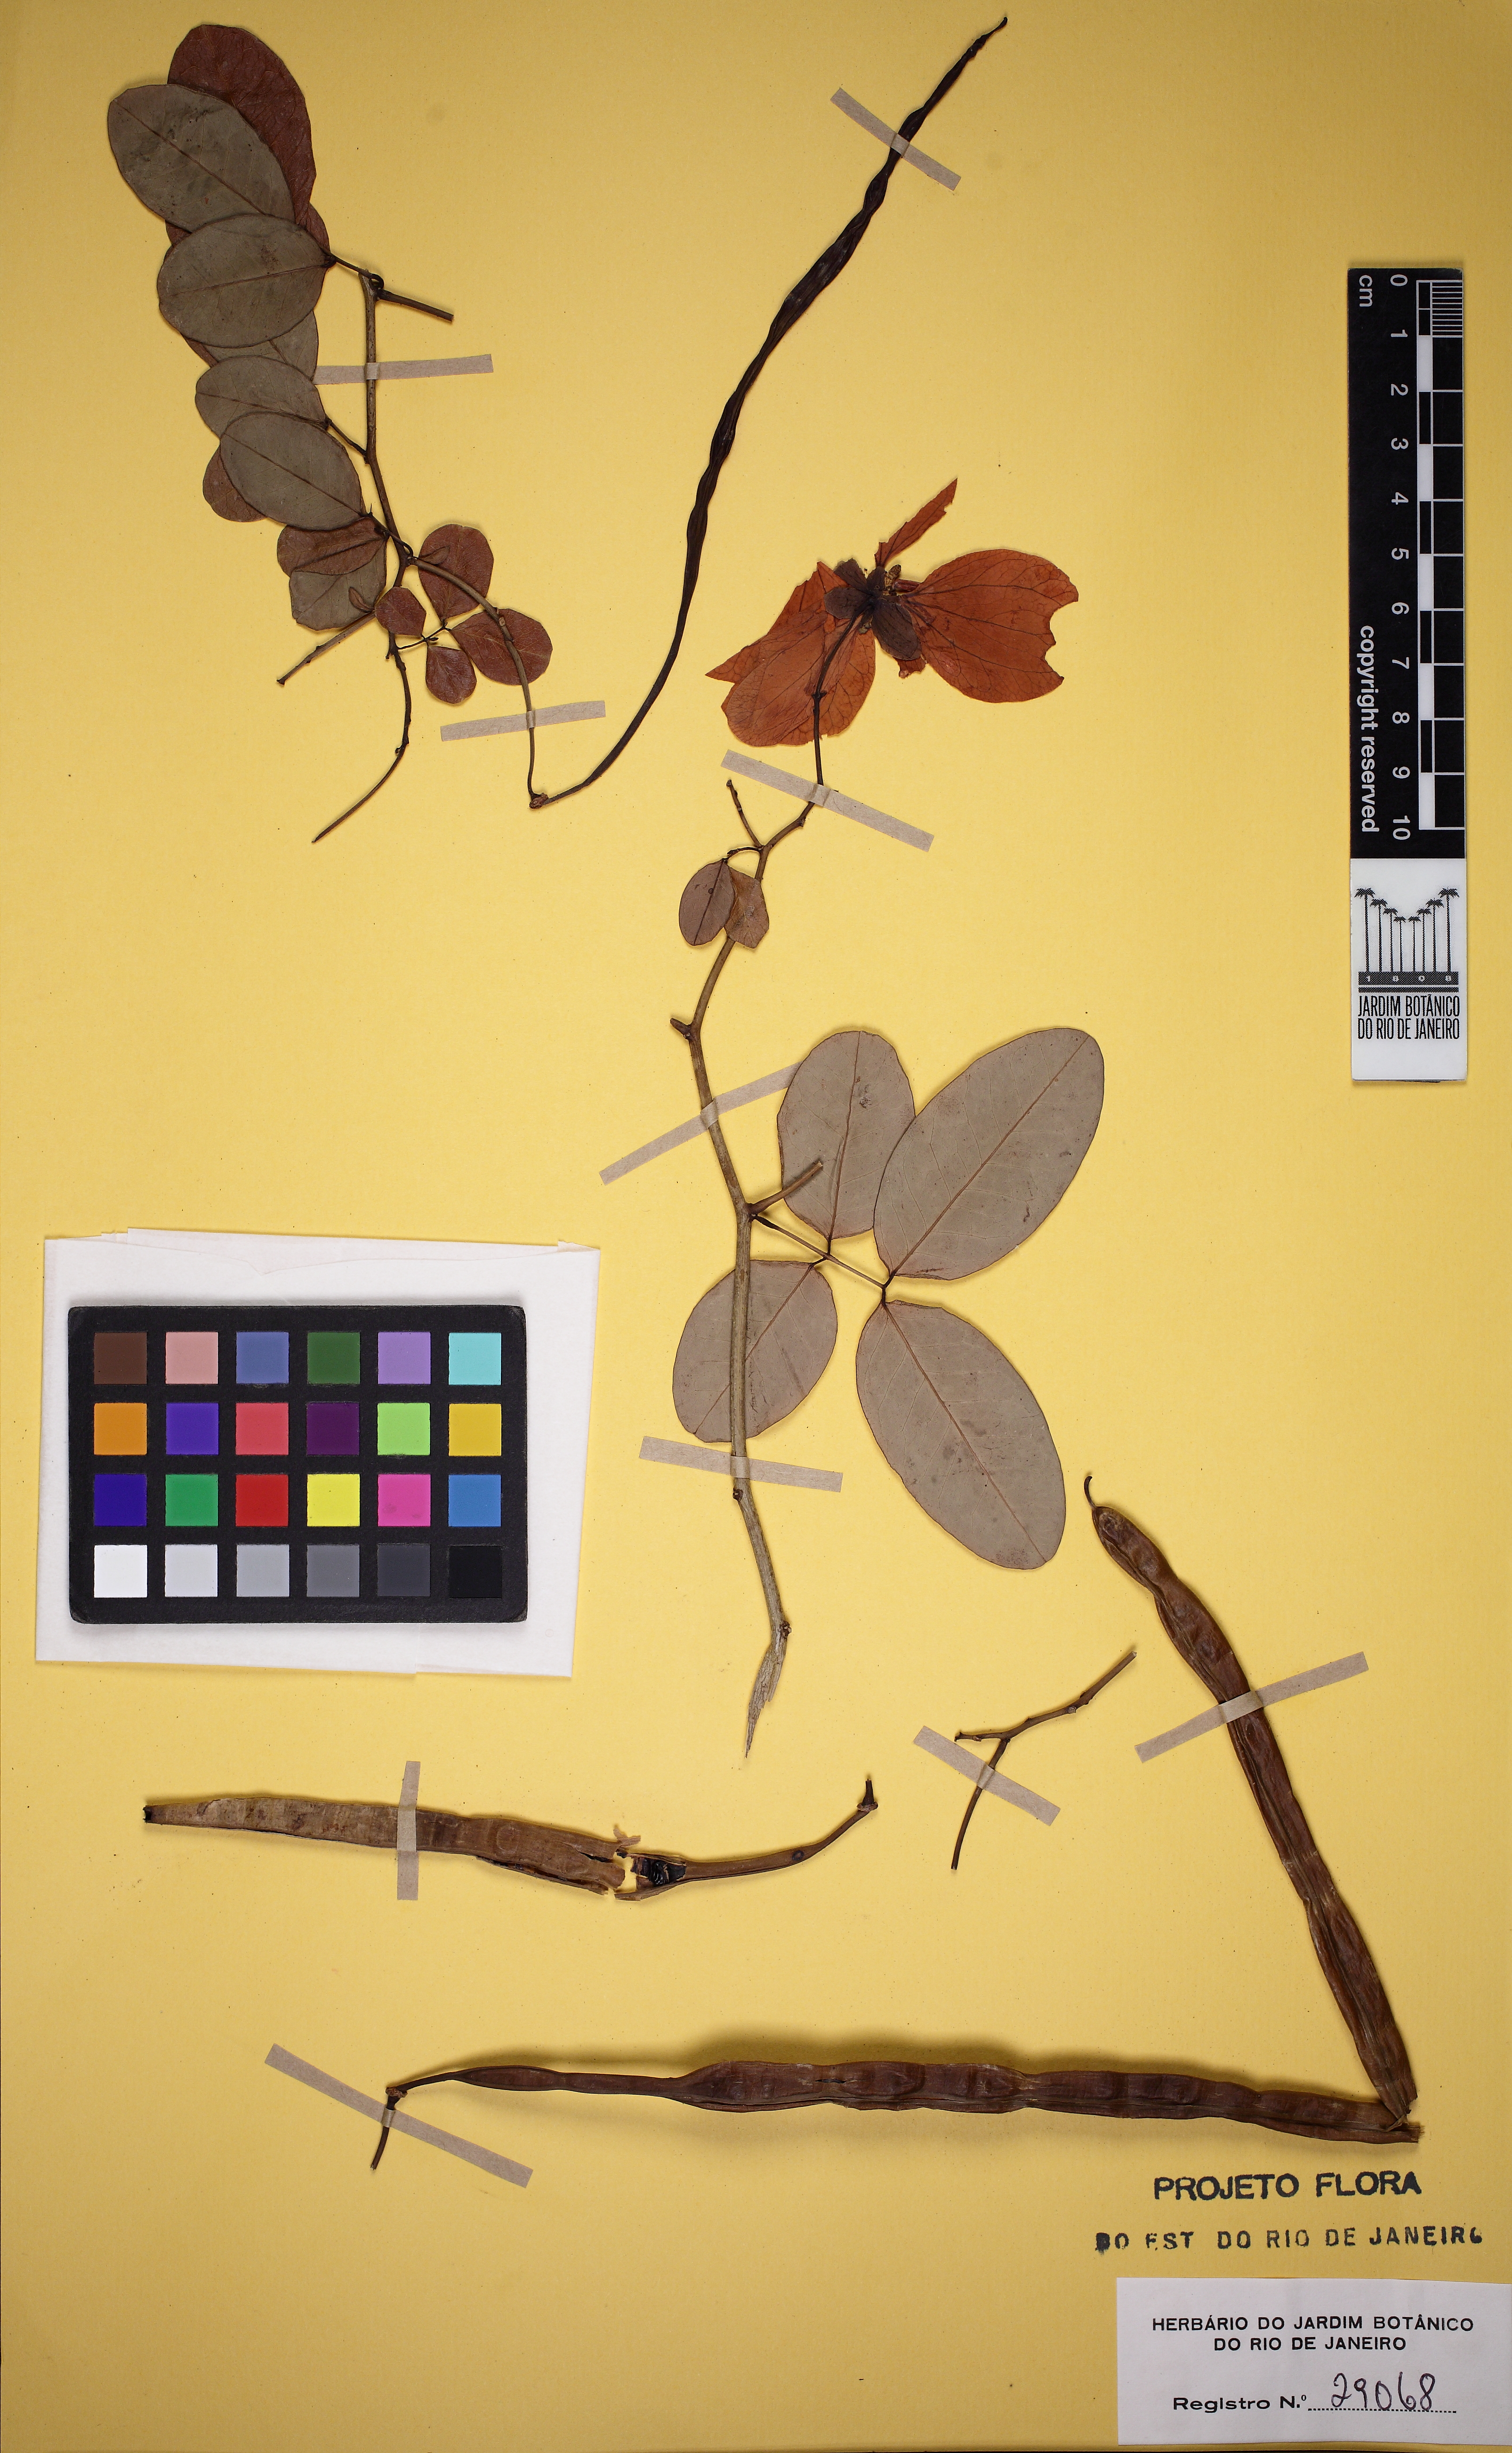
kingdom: Plantae
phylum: Tracheophyta
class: Magnoliopsida
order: Fabales
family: Fabaceae
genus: Senna
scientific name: Senna splendida
